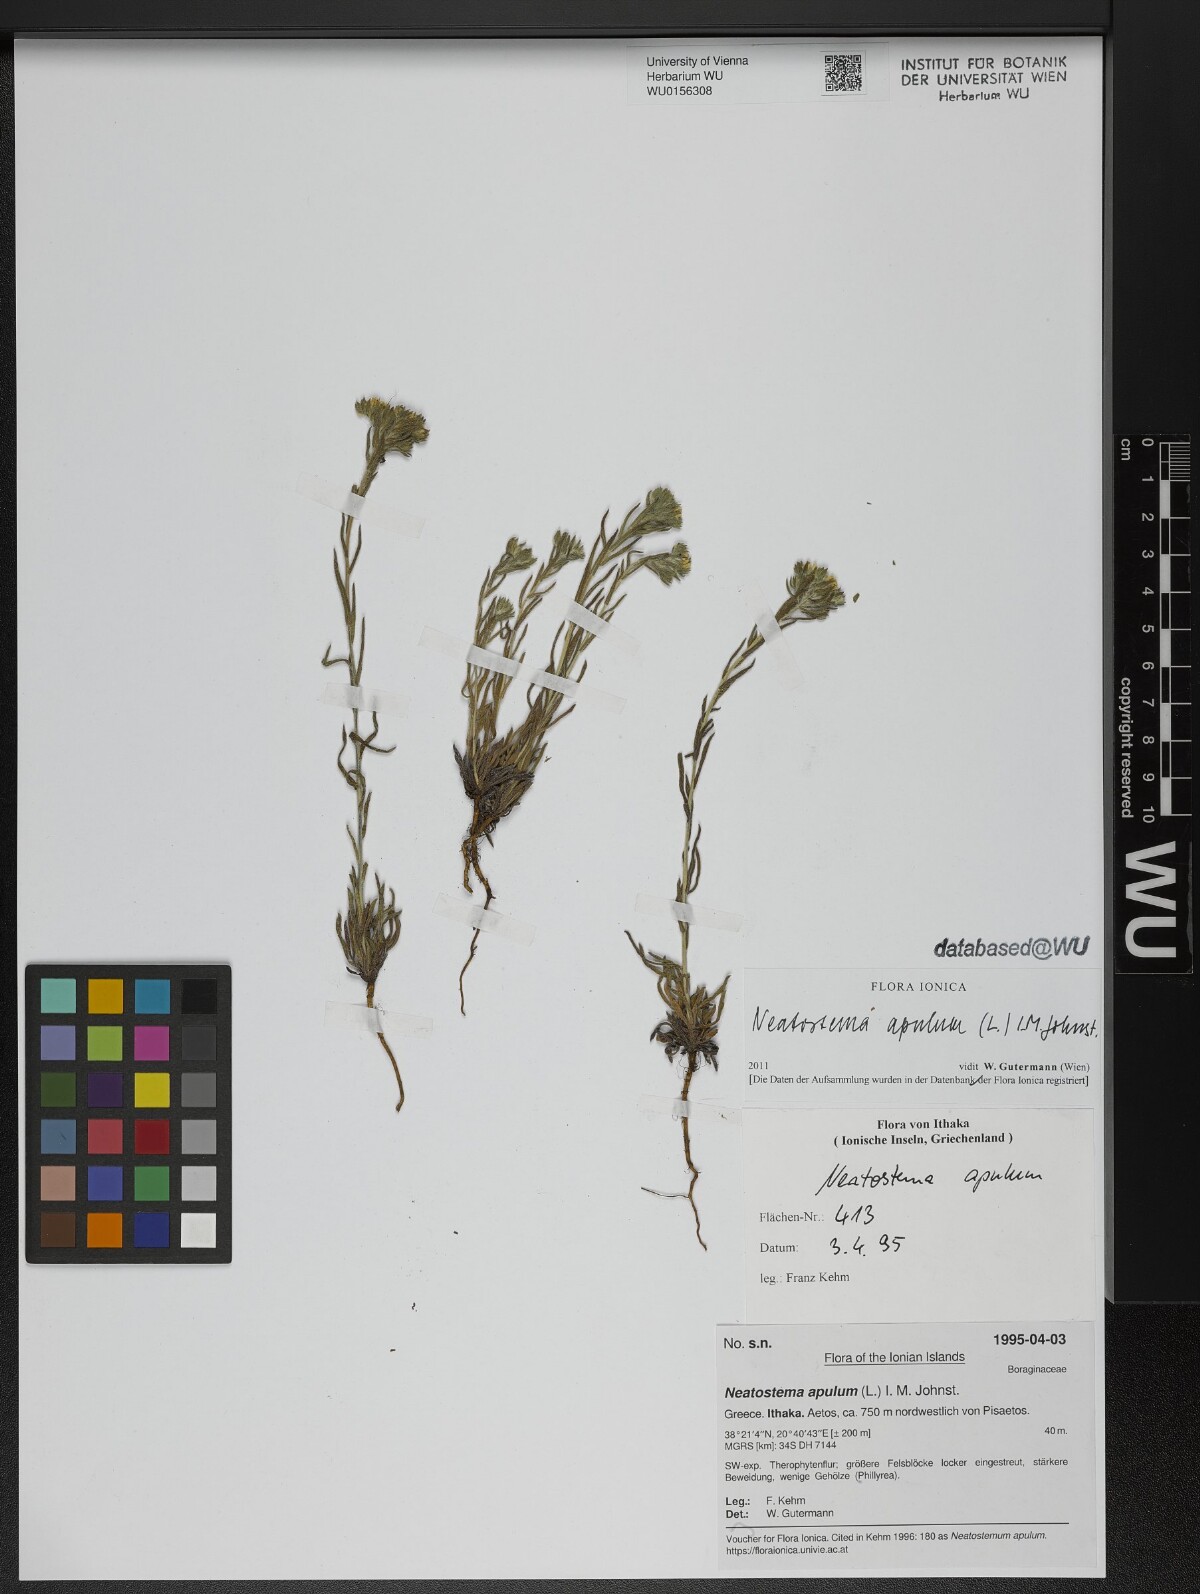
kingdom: Plantae
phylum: Tracheophyta
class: Magnoliopsida
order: Boraginales
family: Boraginaceae
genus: Neatostema
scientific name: Neatostema apulum
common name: Hairy sheepweed
